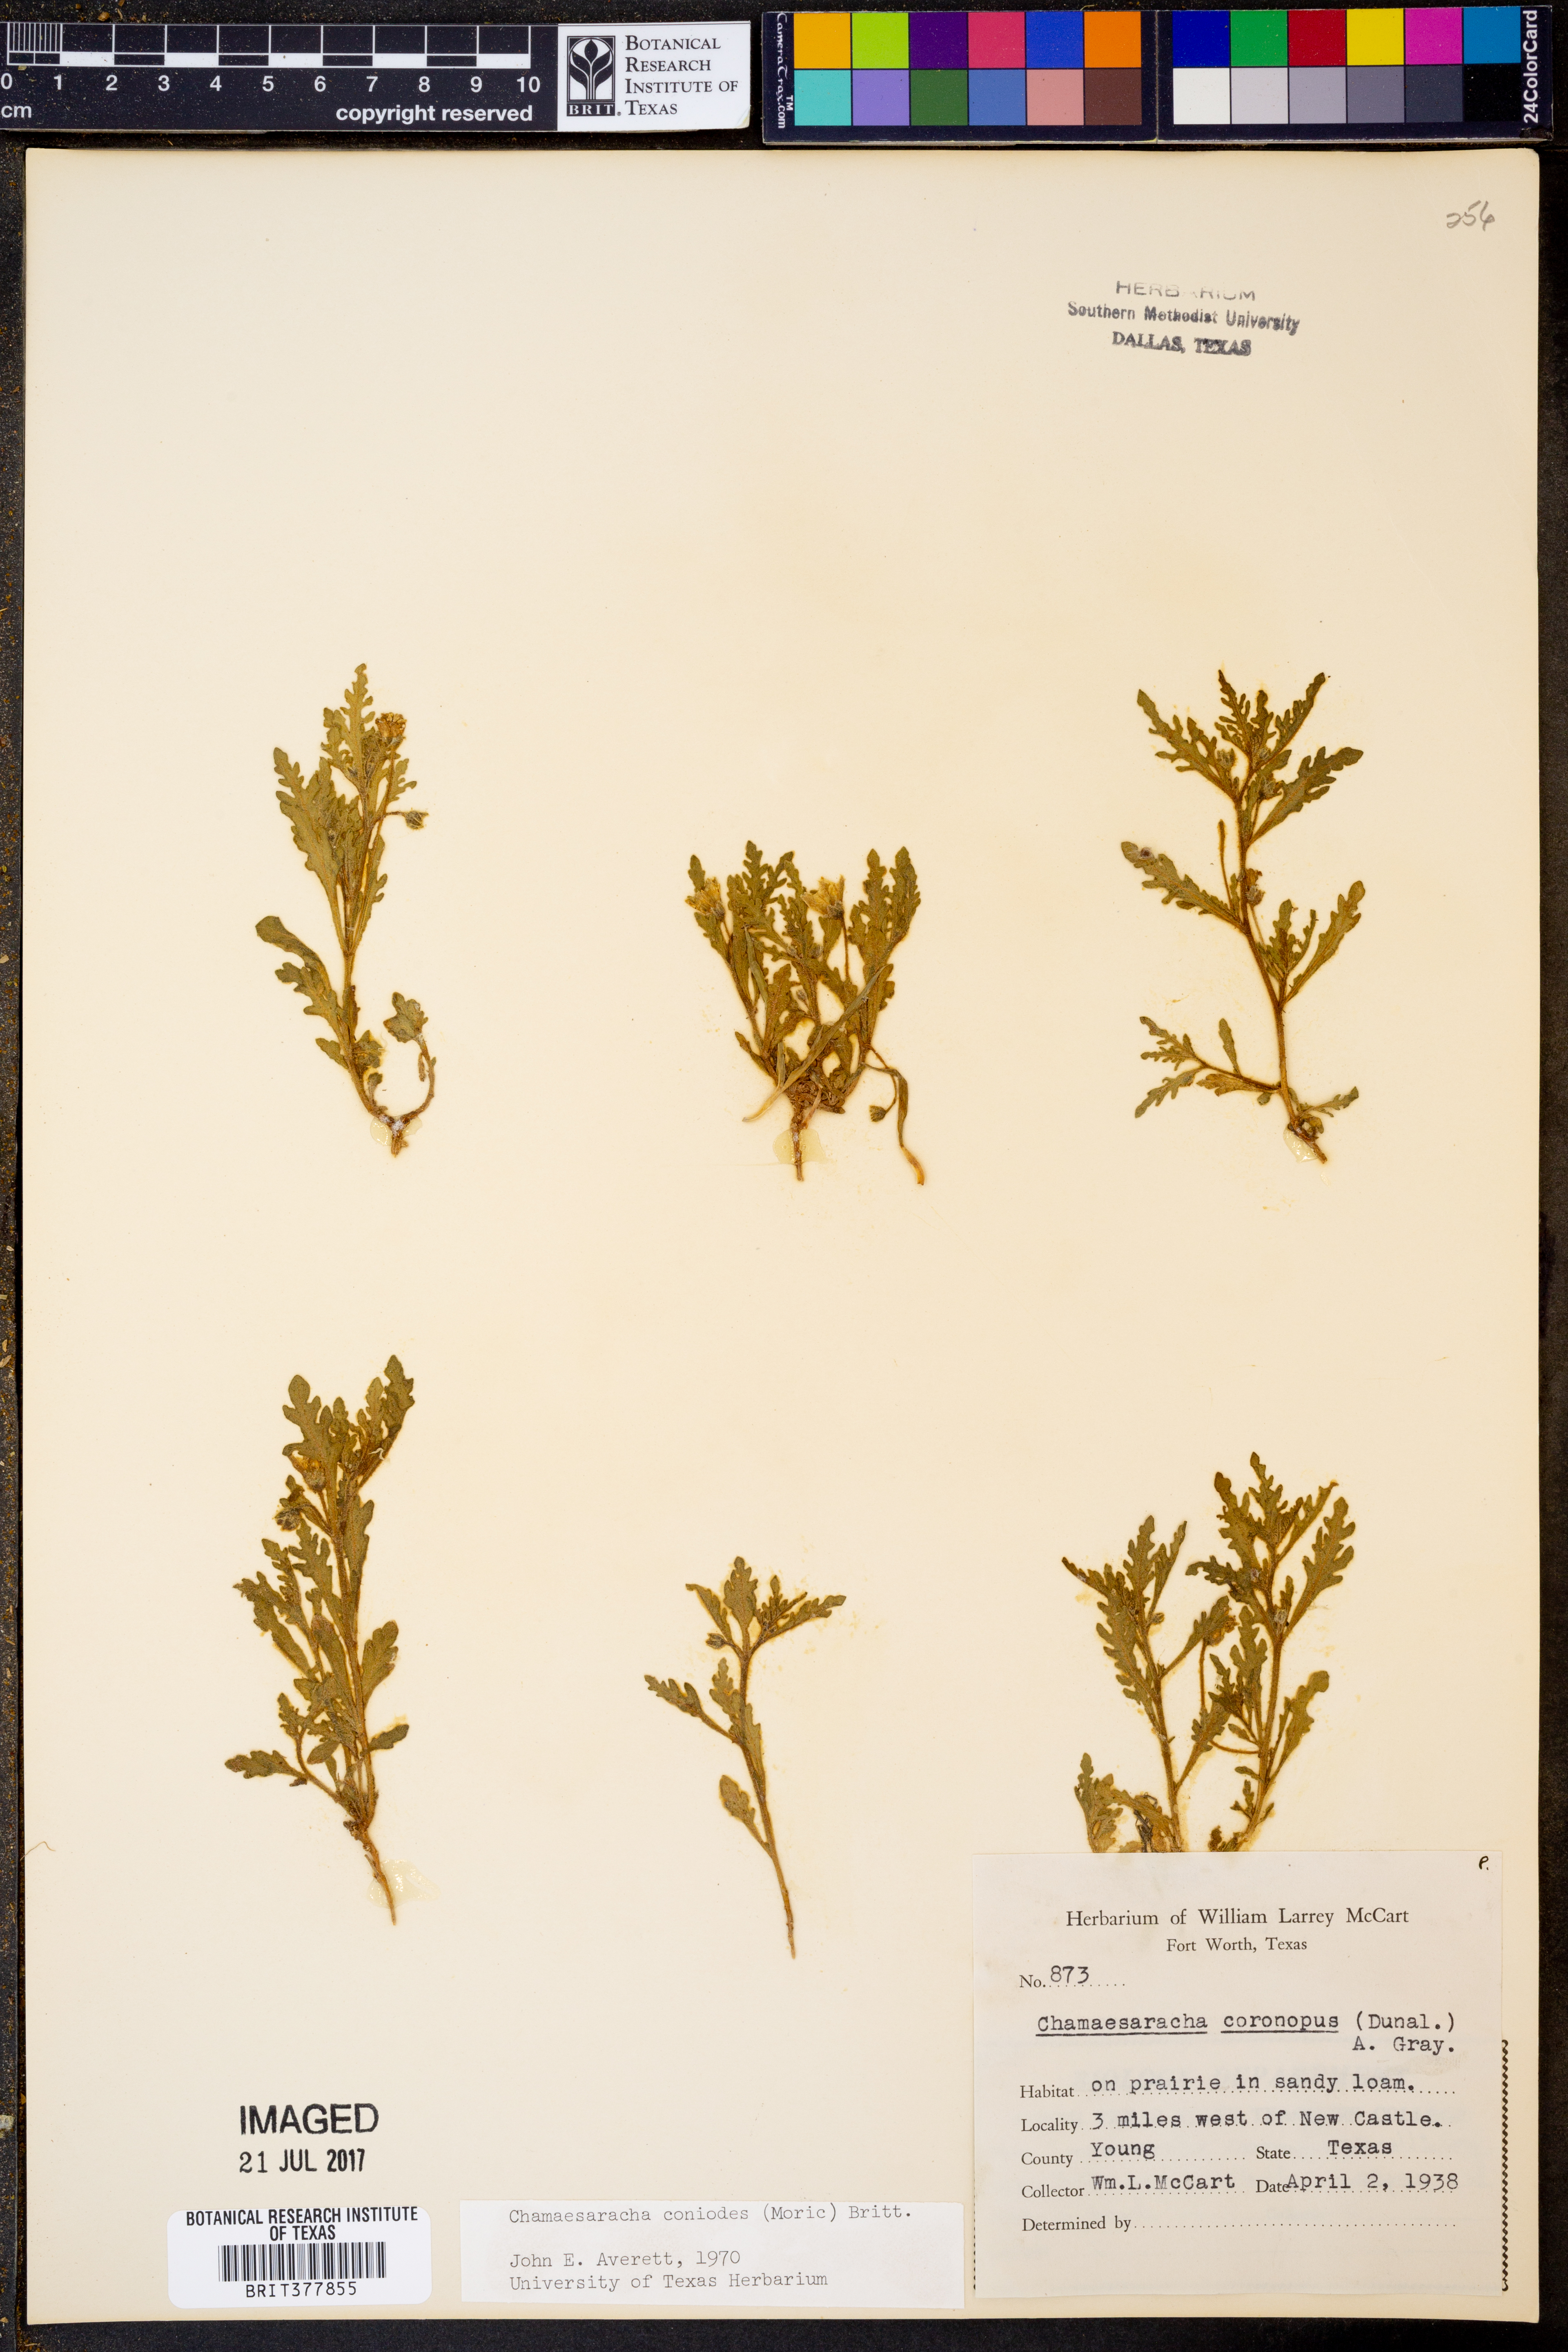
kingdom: Plantae
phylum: Tracheophyta
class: Magnoliopsida
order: Solanales
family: Solanaceae
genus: Chamaesaracha
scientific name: Chamaesaracha coniodes
